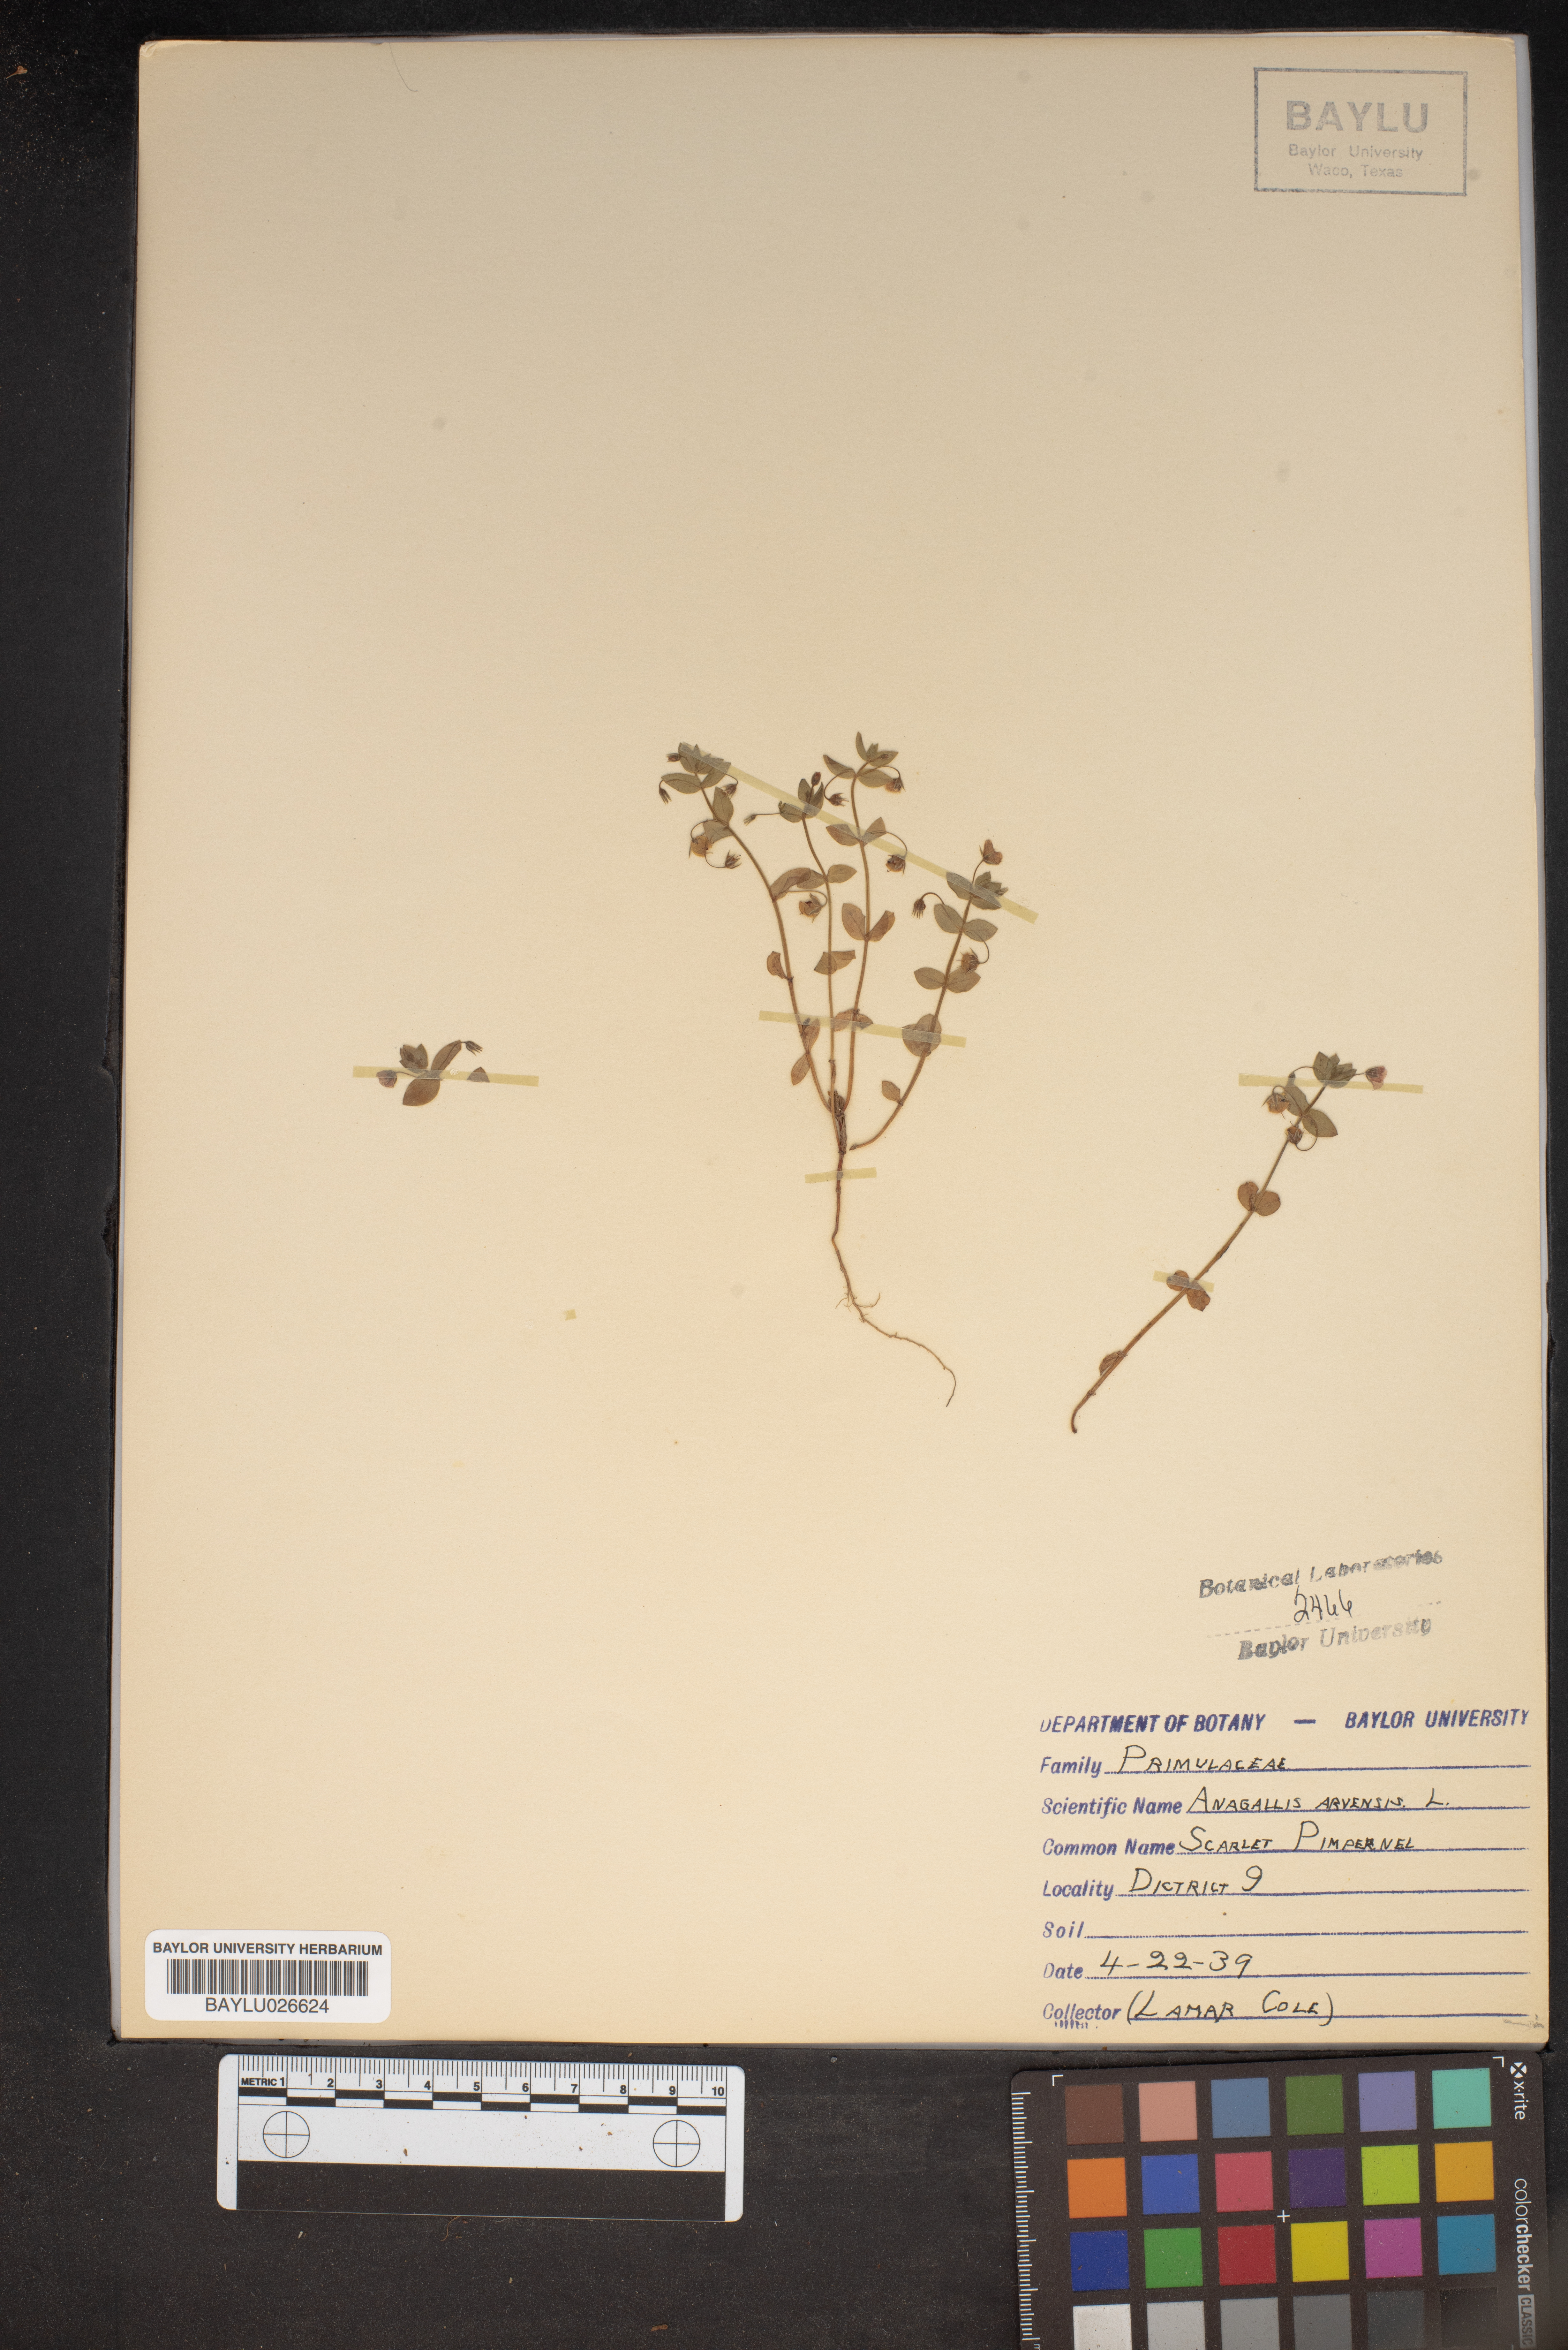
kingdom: Plantae
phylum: Tracheophyta
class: Magnoliopsida
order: Ericales
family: Primulaceae
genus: Lysimachia
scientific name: Lysimachia arvensis
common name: Scarlet pimpernel
